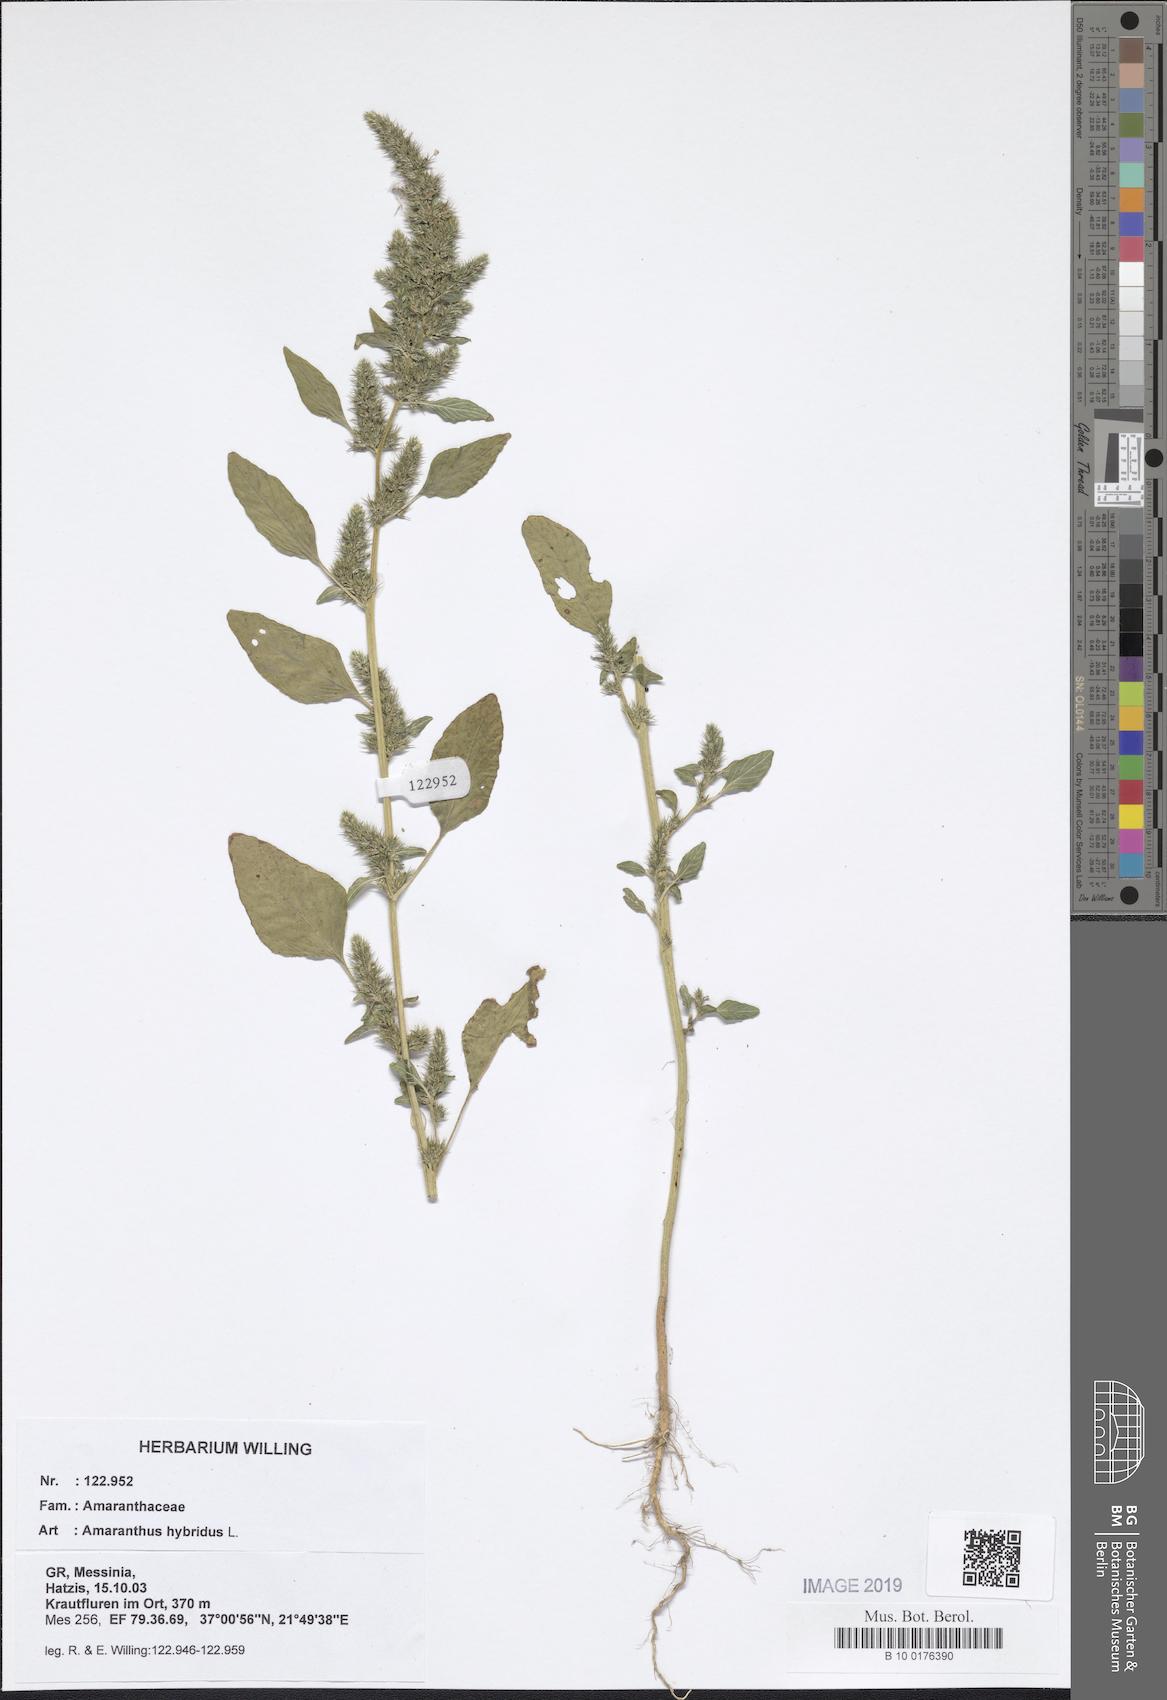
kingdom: Plantae
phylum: Tracheophyta
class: Magnoliopsida
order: Caryophyllales
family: Amaranthaceae
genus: Amaranthus
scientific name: Amaranthus hybridus
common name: Green amaranth
